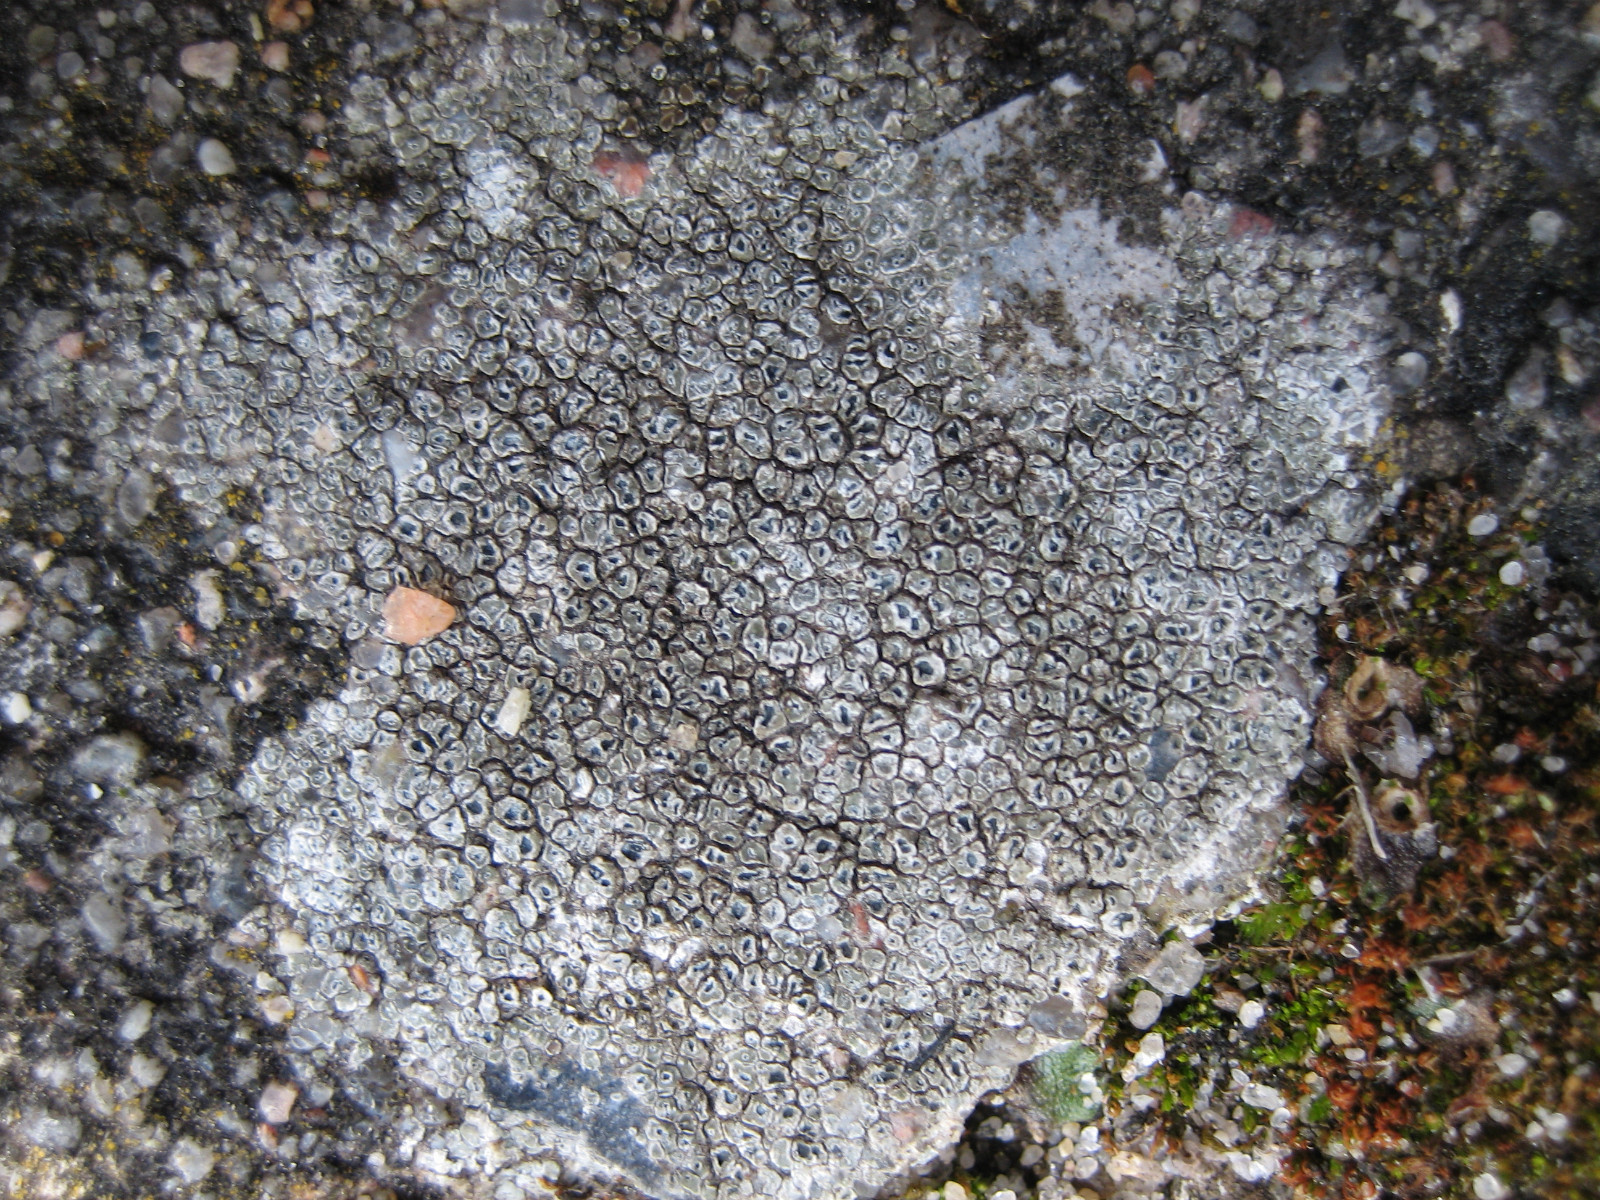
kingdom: Fungi
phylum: Ascomycota
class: Lecanoromycetes
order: Pertusariales
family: Megasporaceae
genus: Circinaria
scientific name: Circinaria contorta
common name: indviklet hulskivelav
